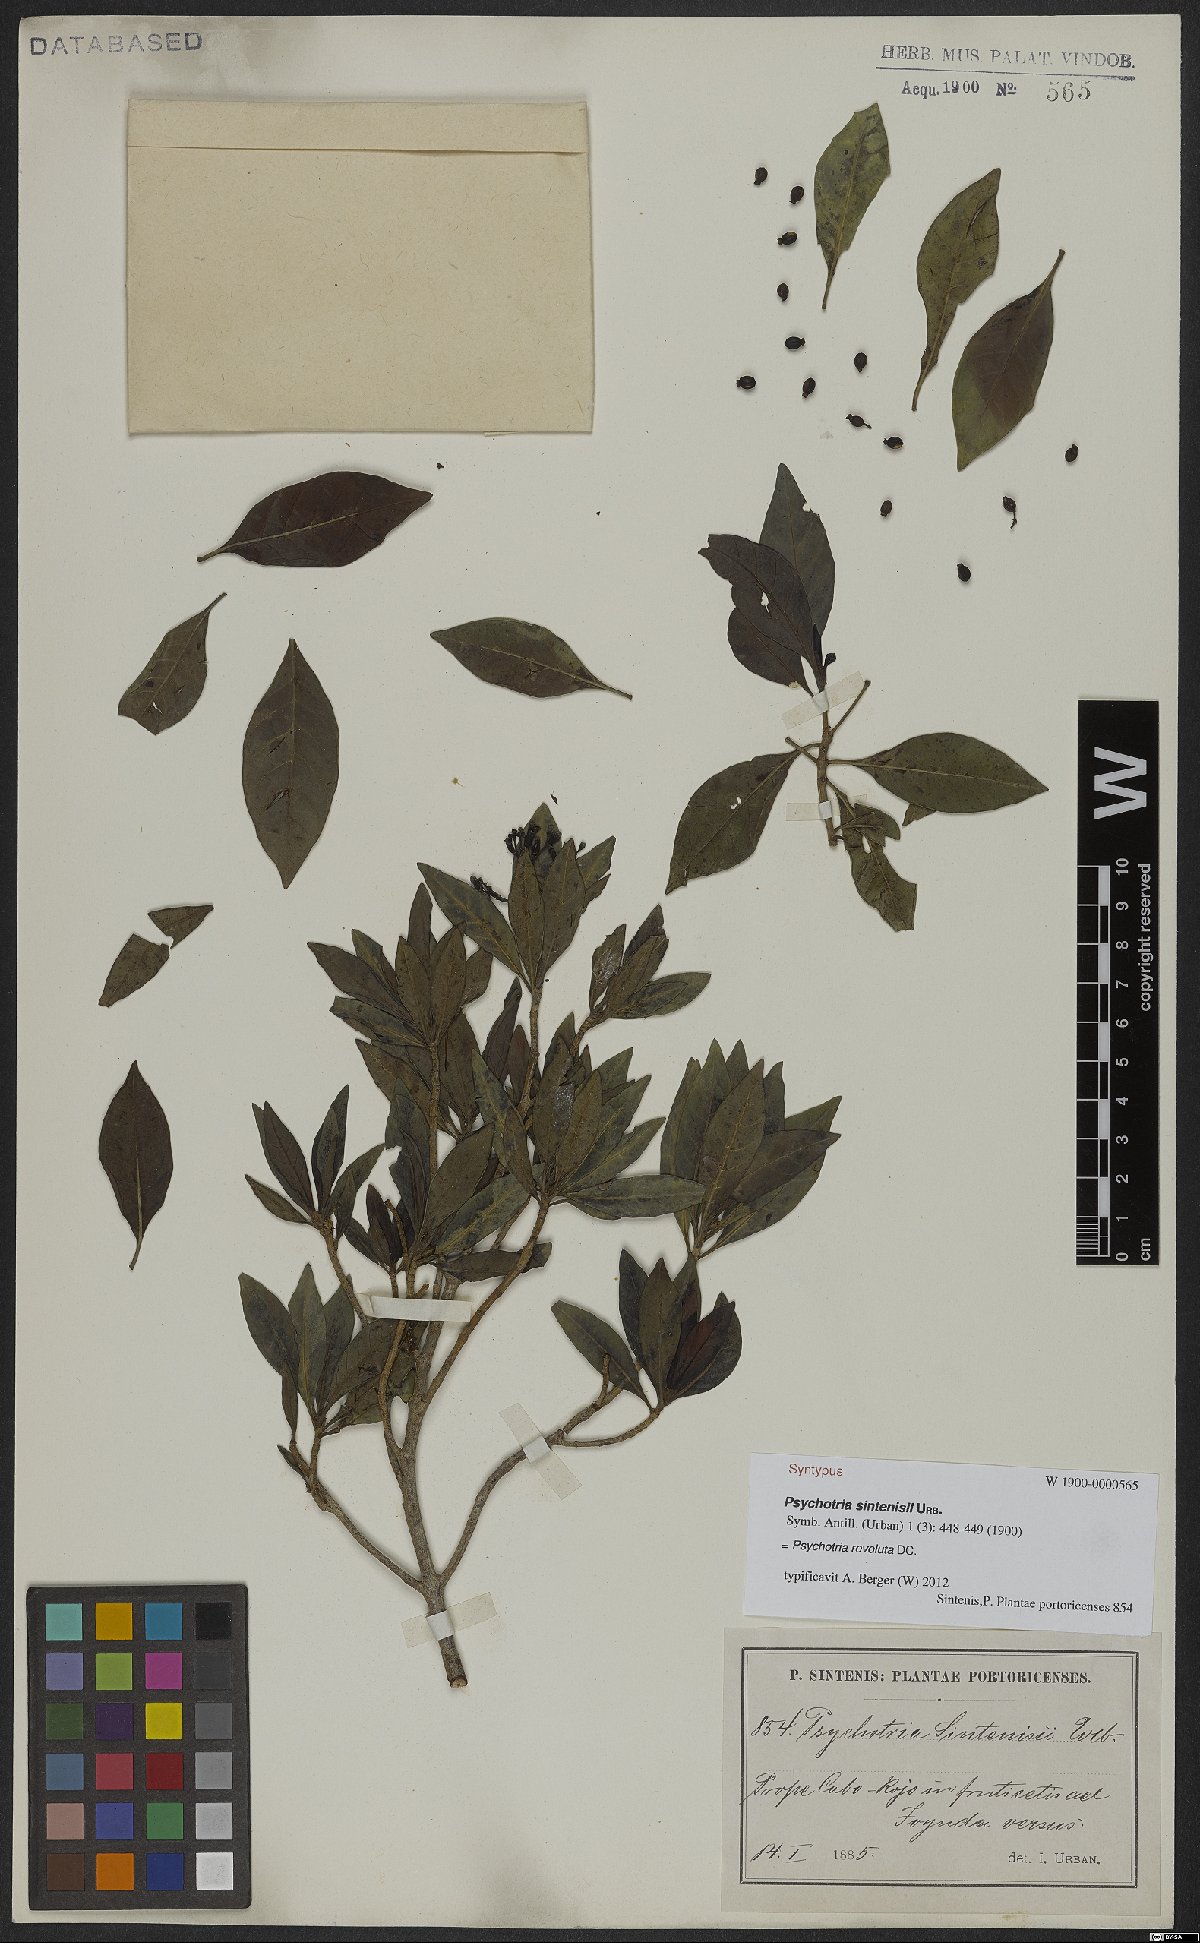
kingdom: Plantae
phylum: Tracheophyta
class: Magnoliopsida
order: Gentianales
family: Rubiaceae
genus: Psychotria
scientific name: Psychotria revoluta
